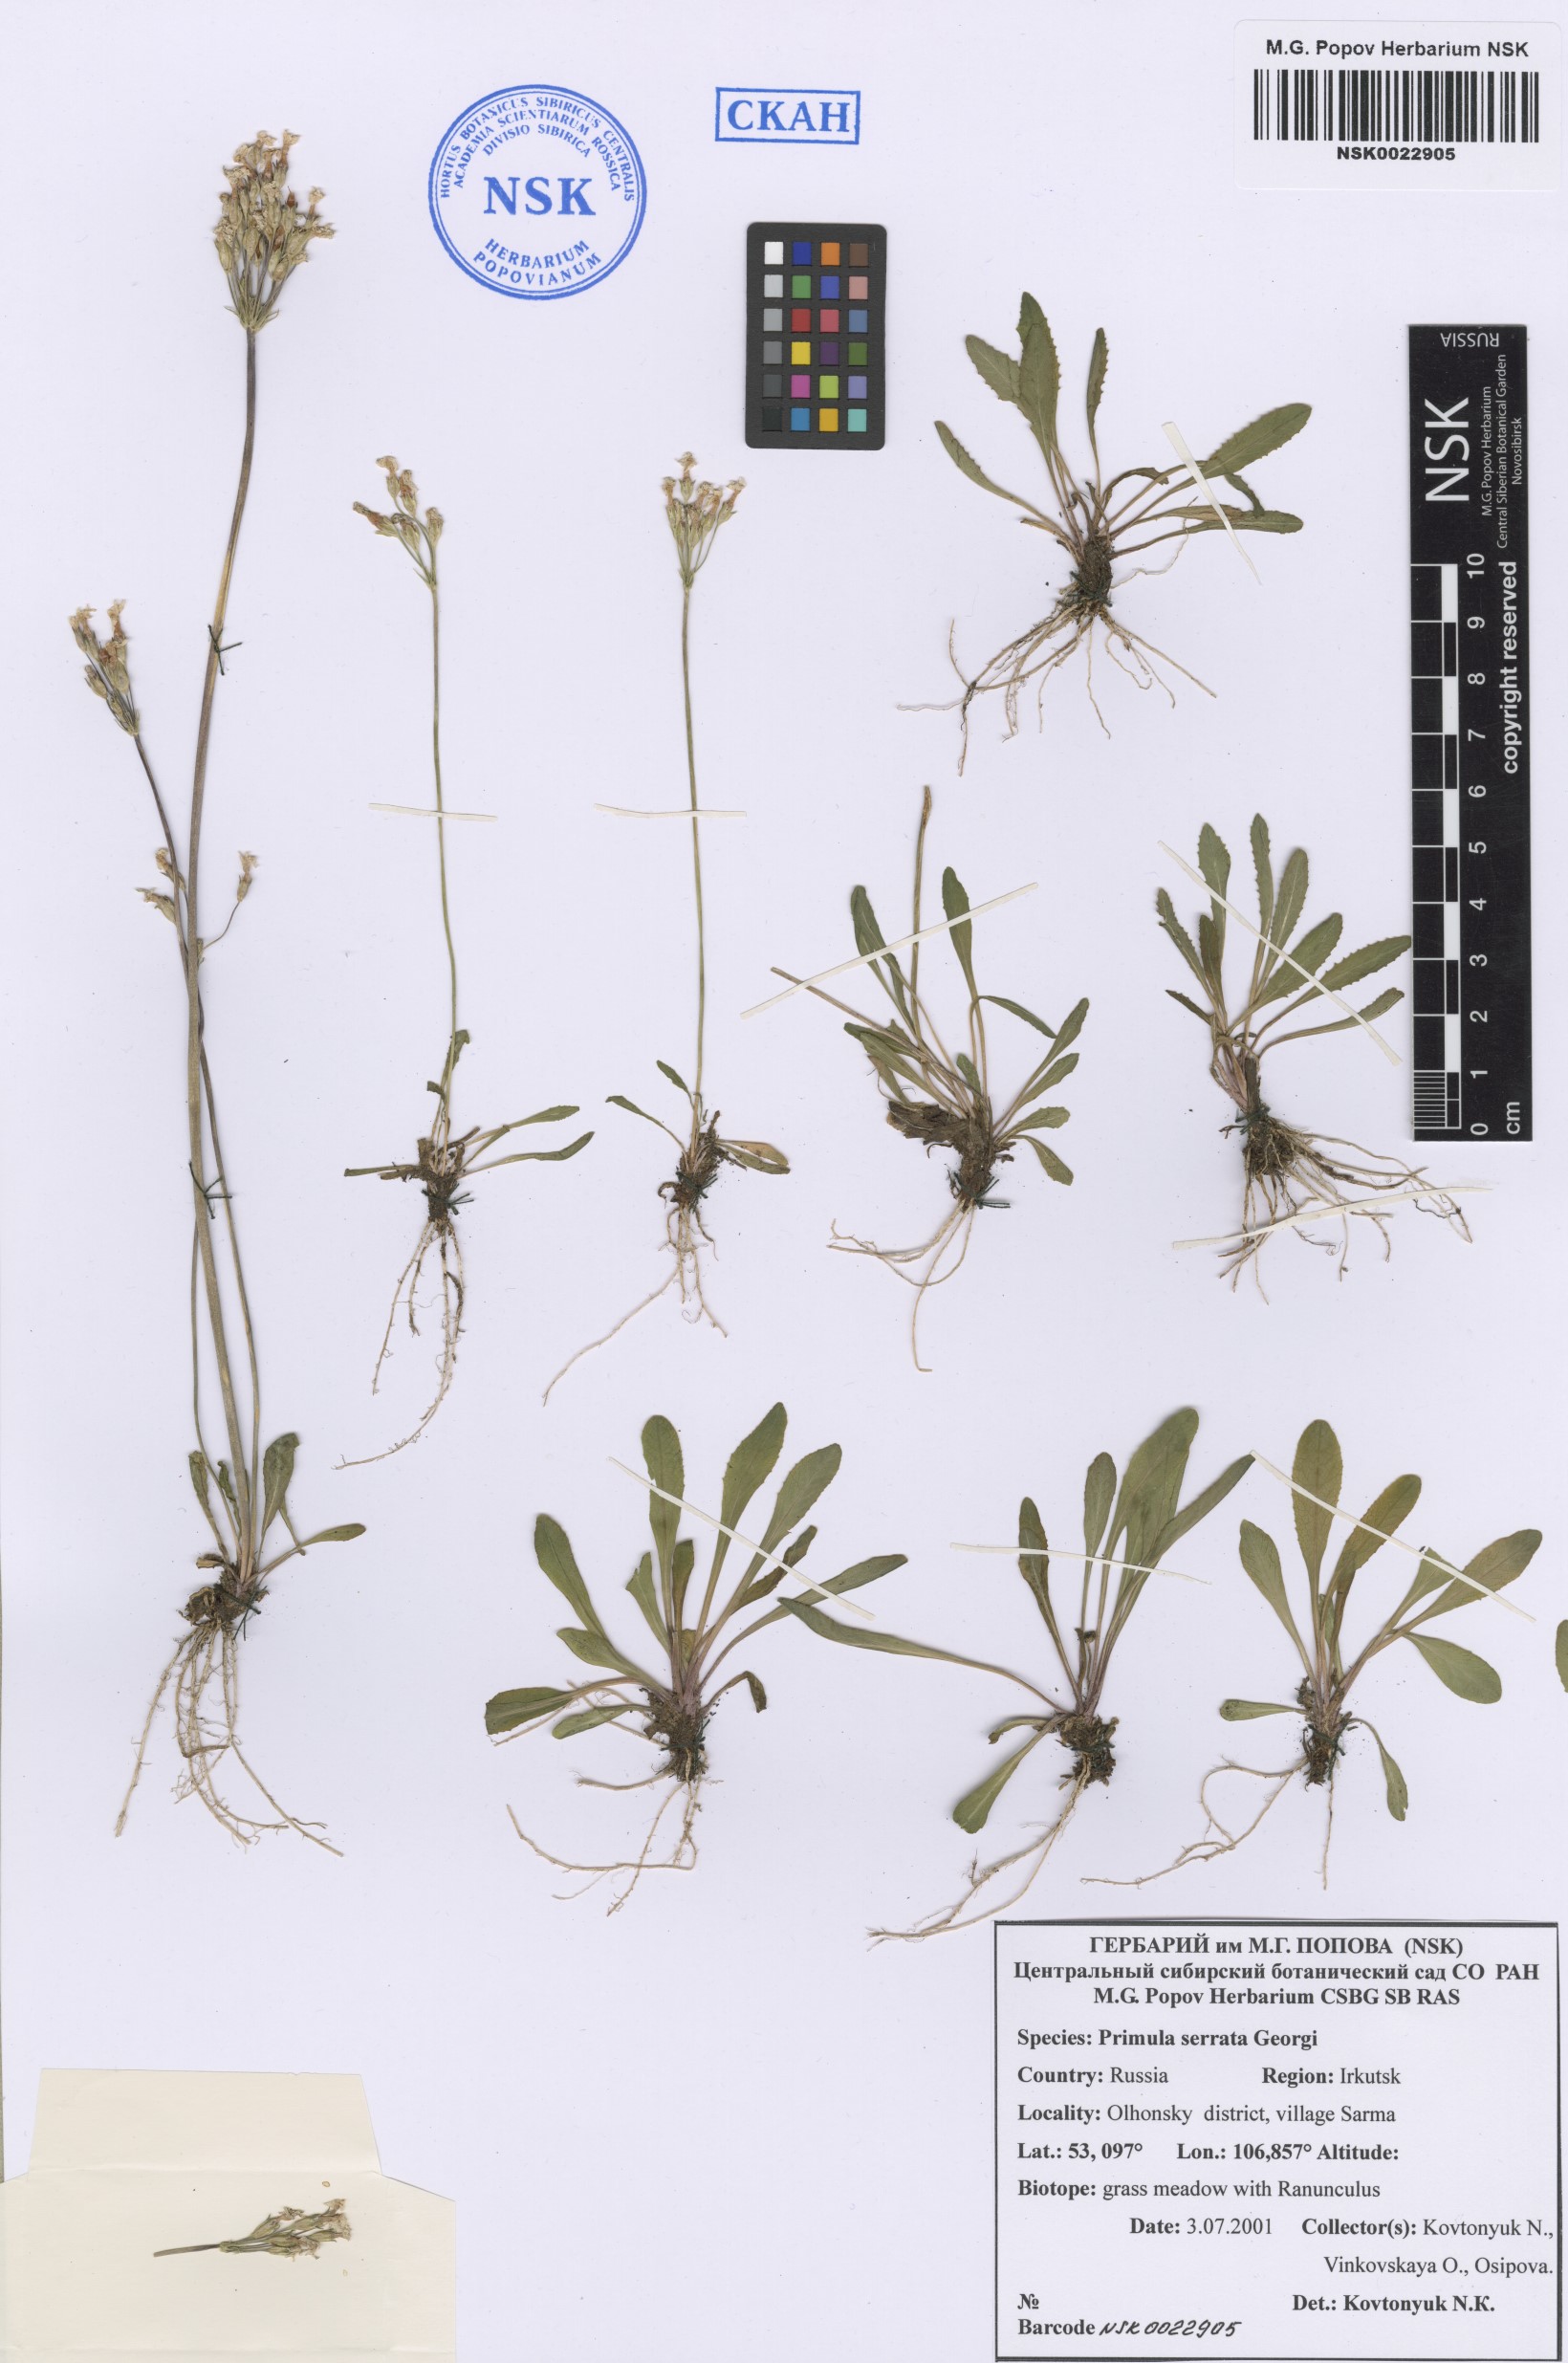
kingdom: Plantae
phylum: Tracheophyta
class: Magnoliopsida
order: Ericales
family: Primulaceae
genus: Primula
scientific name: Primula serrata
